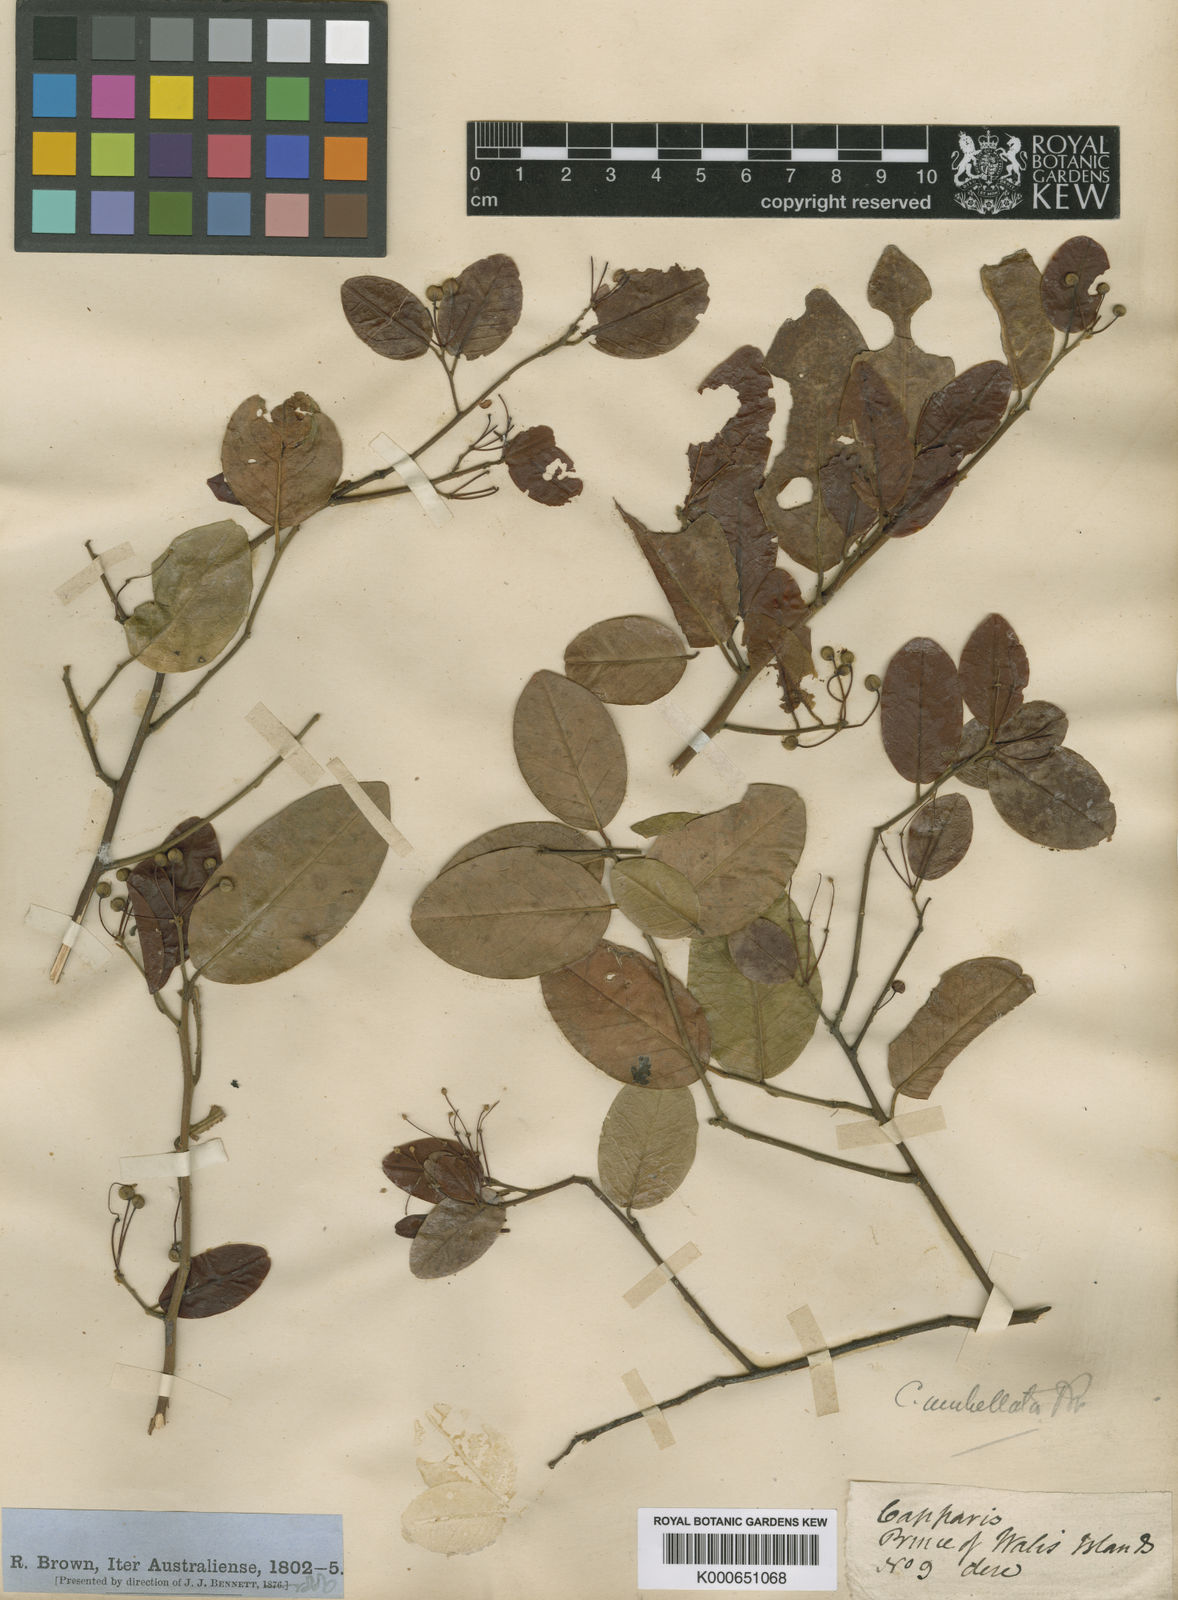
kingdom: Plantae
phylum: Tracheophyta
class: Magnoliopsida
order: Brassicales
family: Capparaceae
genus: Capparis
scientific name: Capparis
